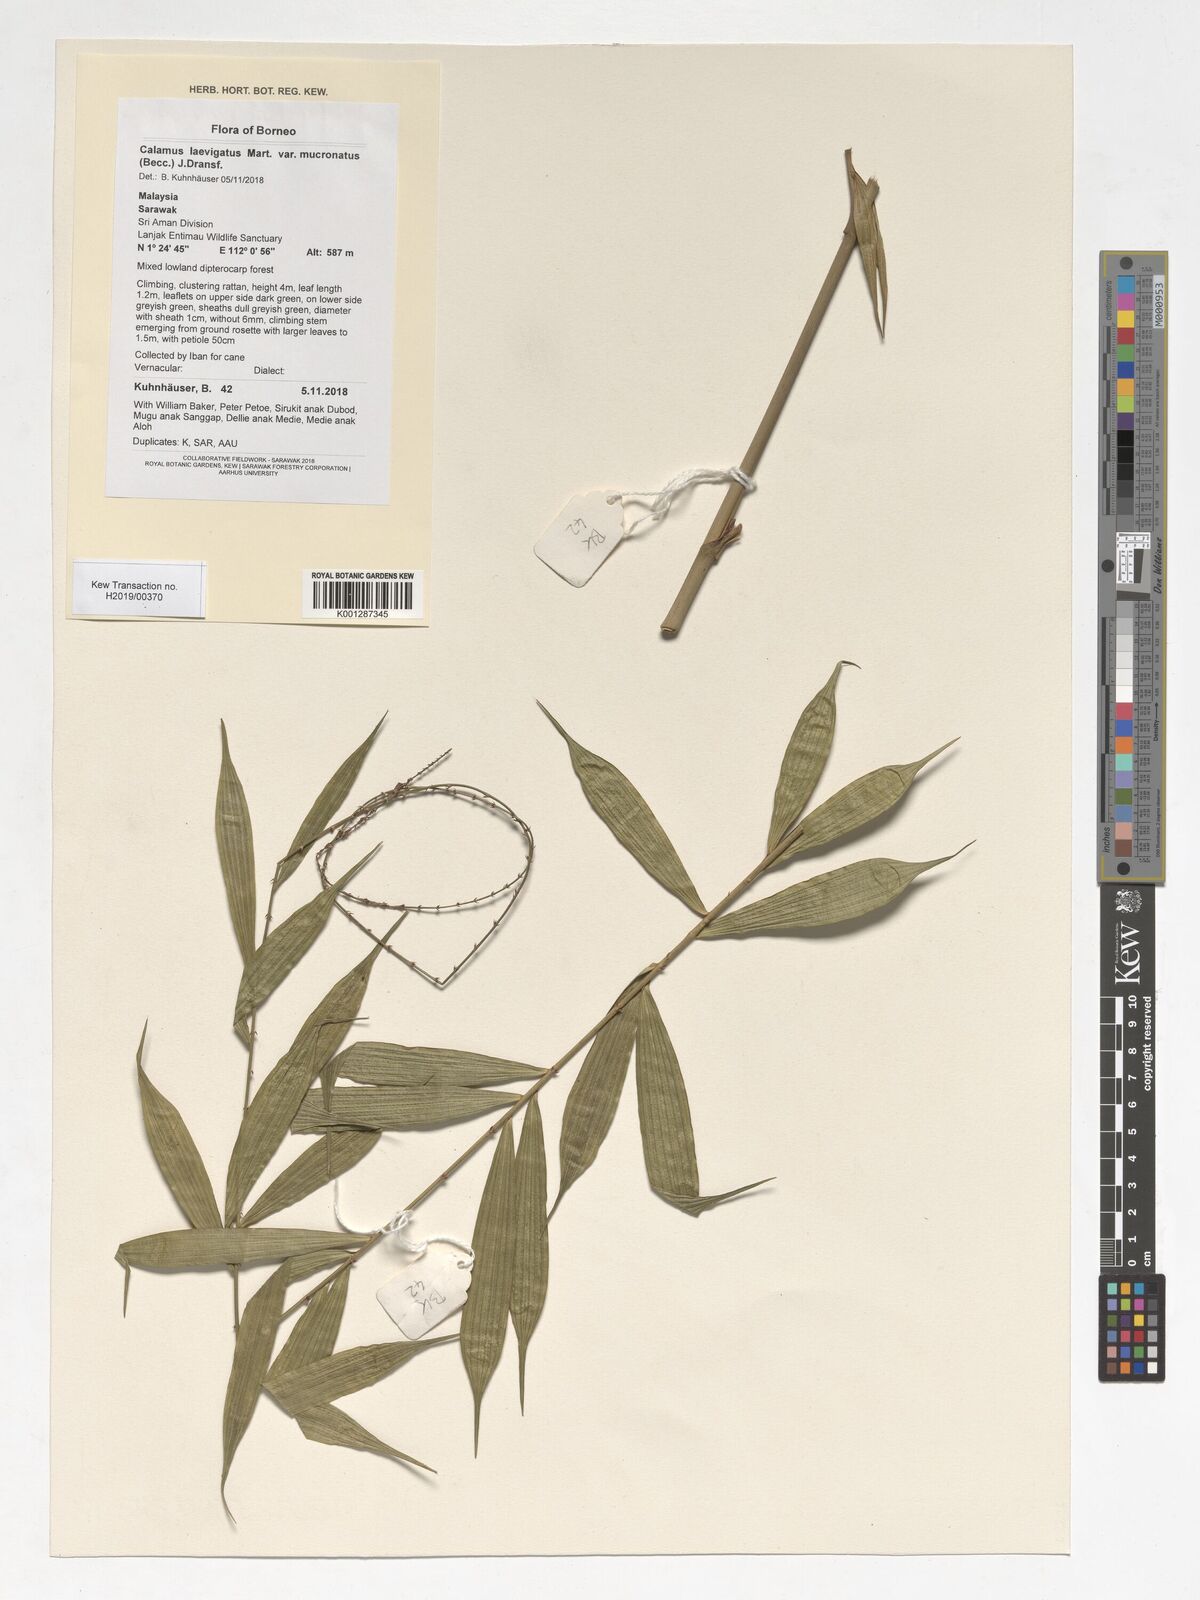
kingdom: Plantae
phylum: Tracheophyta
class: Liliopsida
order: Arecales
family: Arecaceae
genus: Calamus
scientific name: Calamus plicatus
